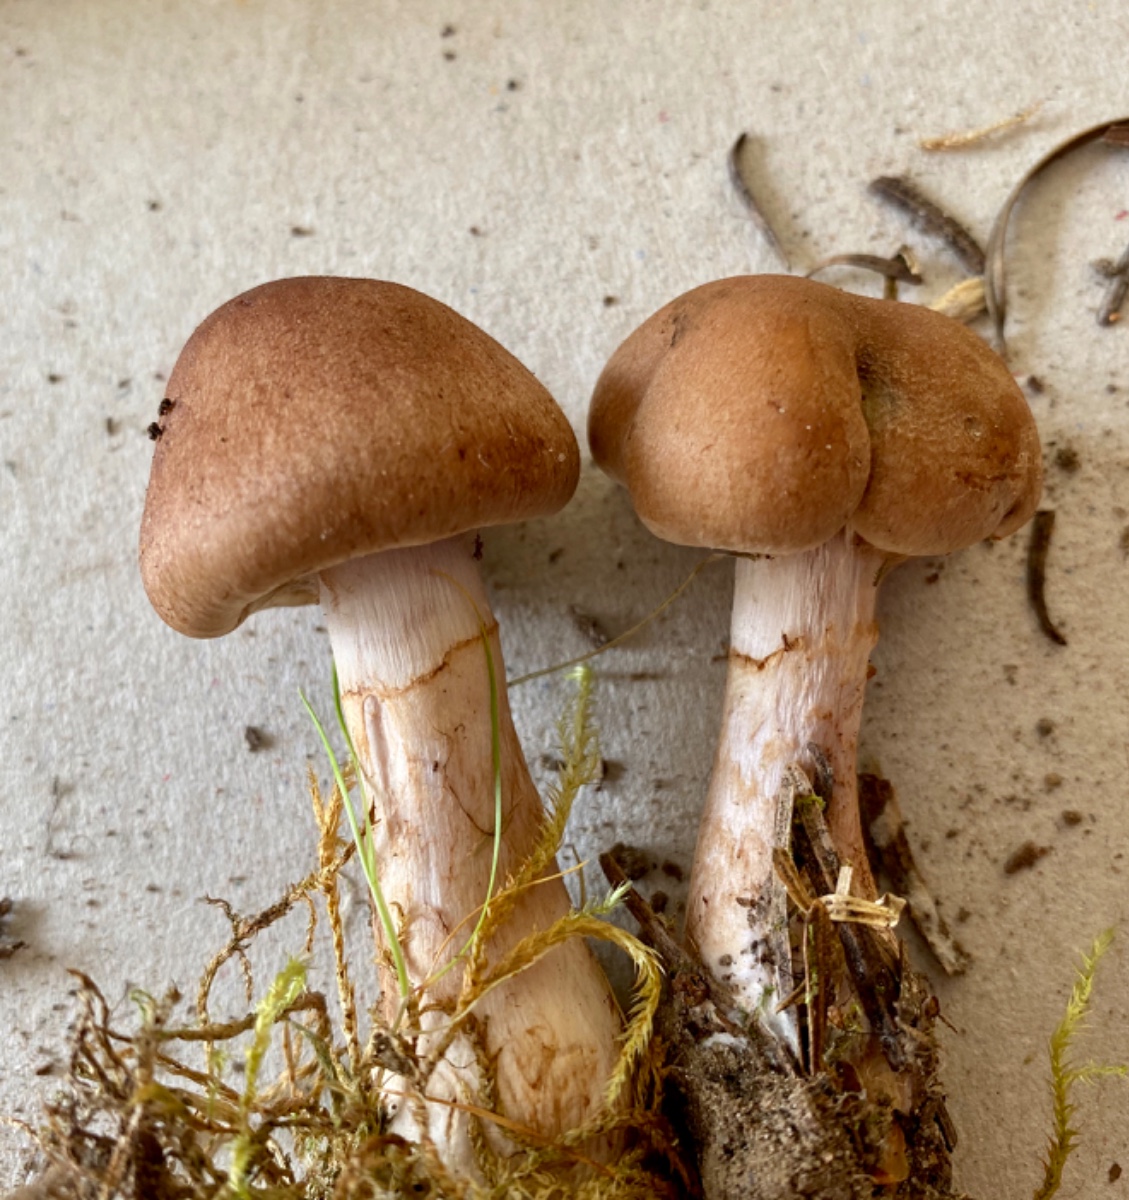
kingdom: Fungi
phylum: Basidiomycota
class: Agaricomycetes
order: Agaricales
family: Cortinariaceae
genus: Cortinarius
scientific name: Cortinarius
